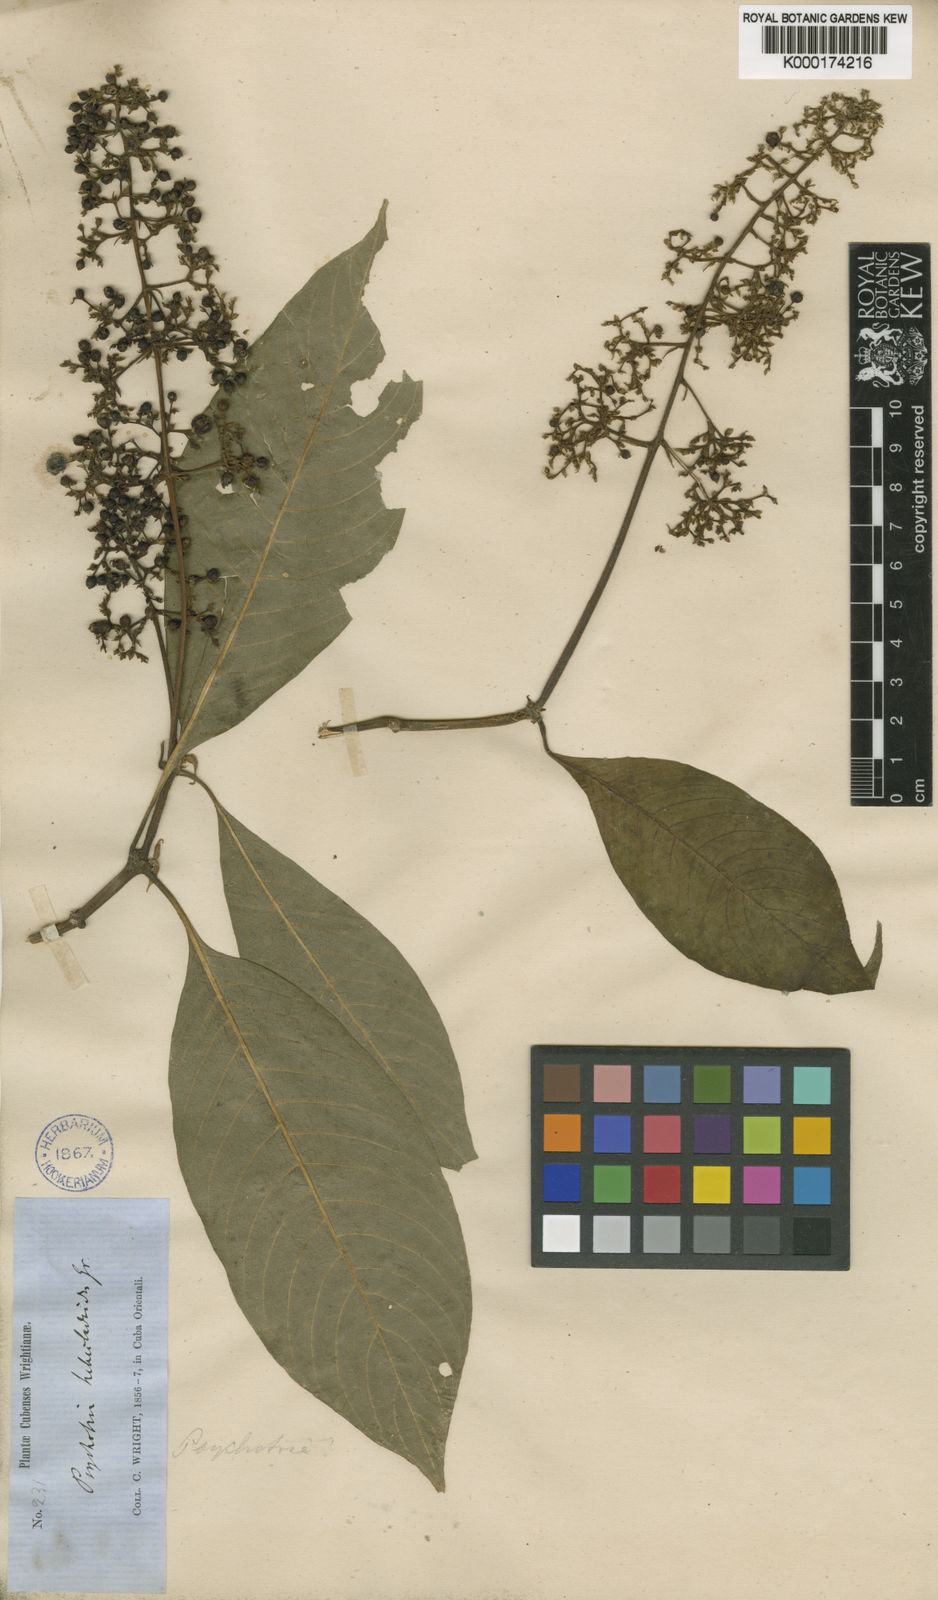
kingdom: Plantae
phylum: Tracheophyta
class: Magnoliopsida
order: Gentianales
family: Rubiaceae
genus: Palicourea
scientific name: Palicourea berteroana
